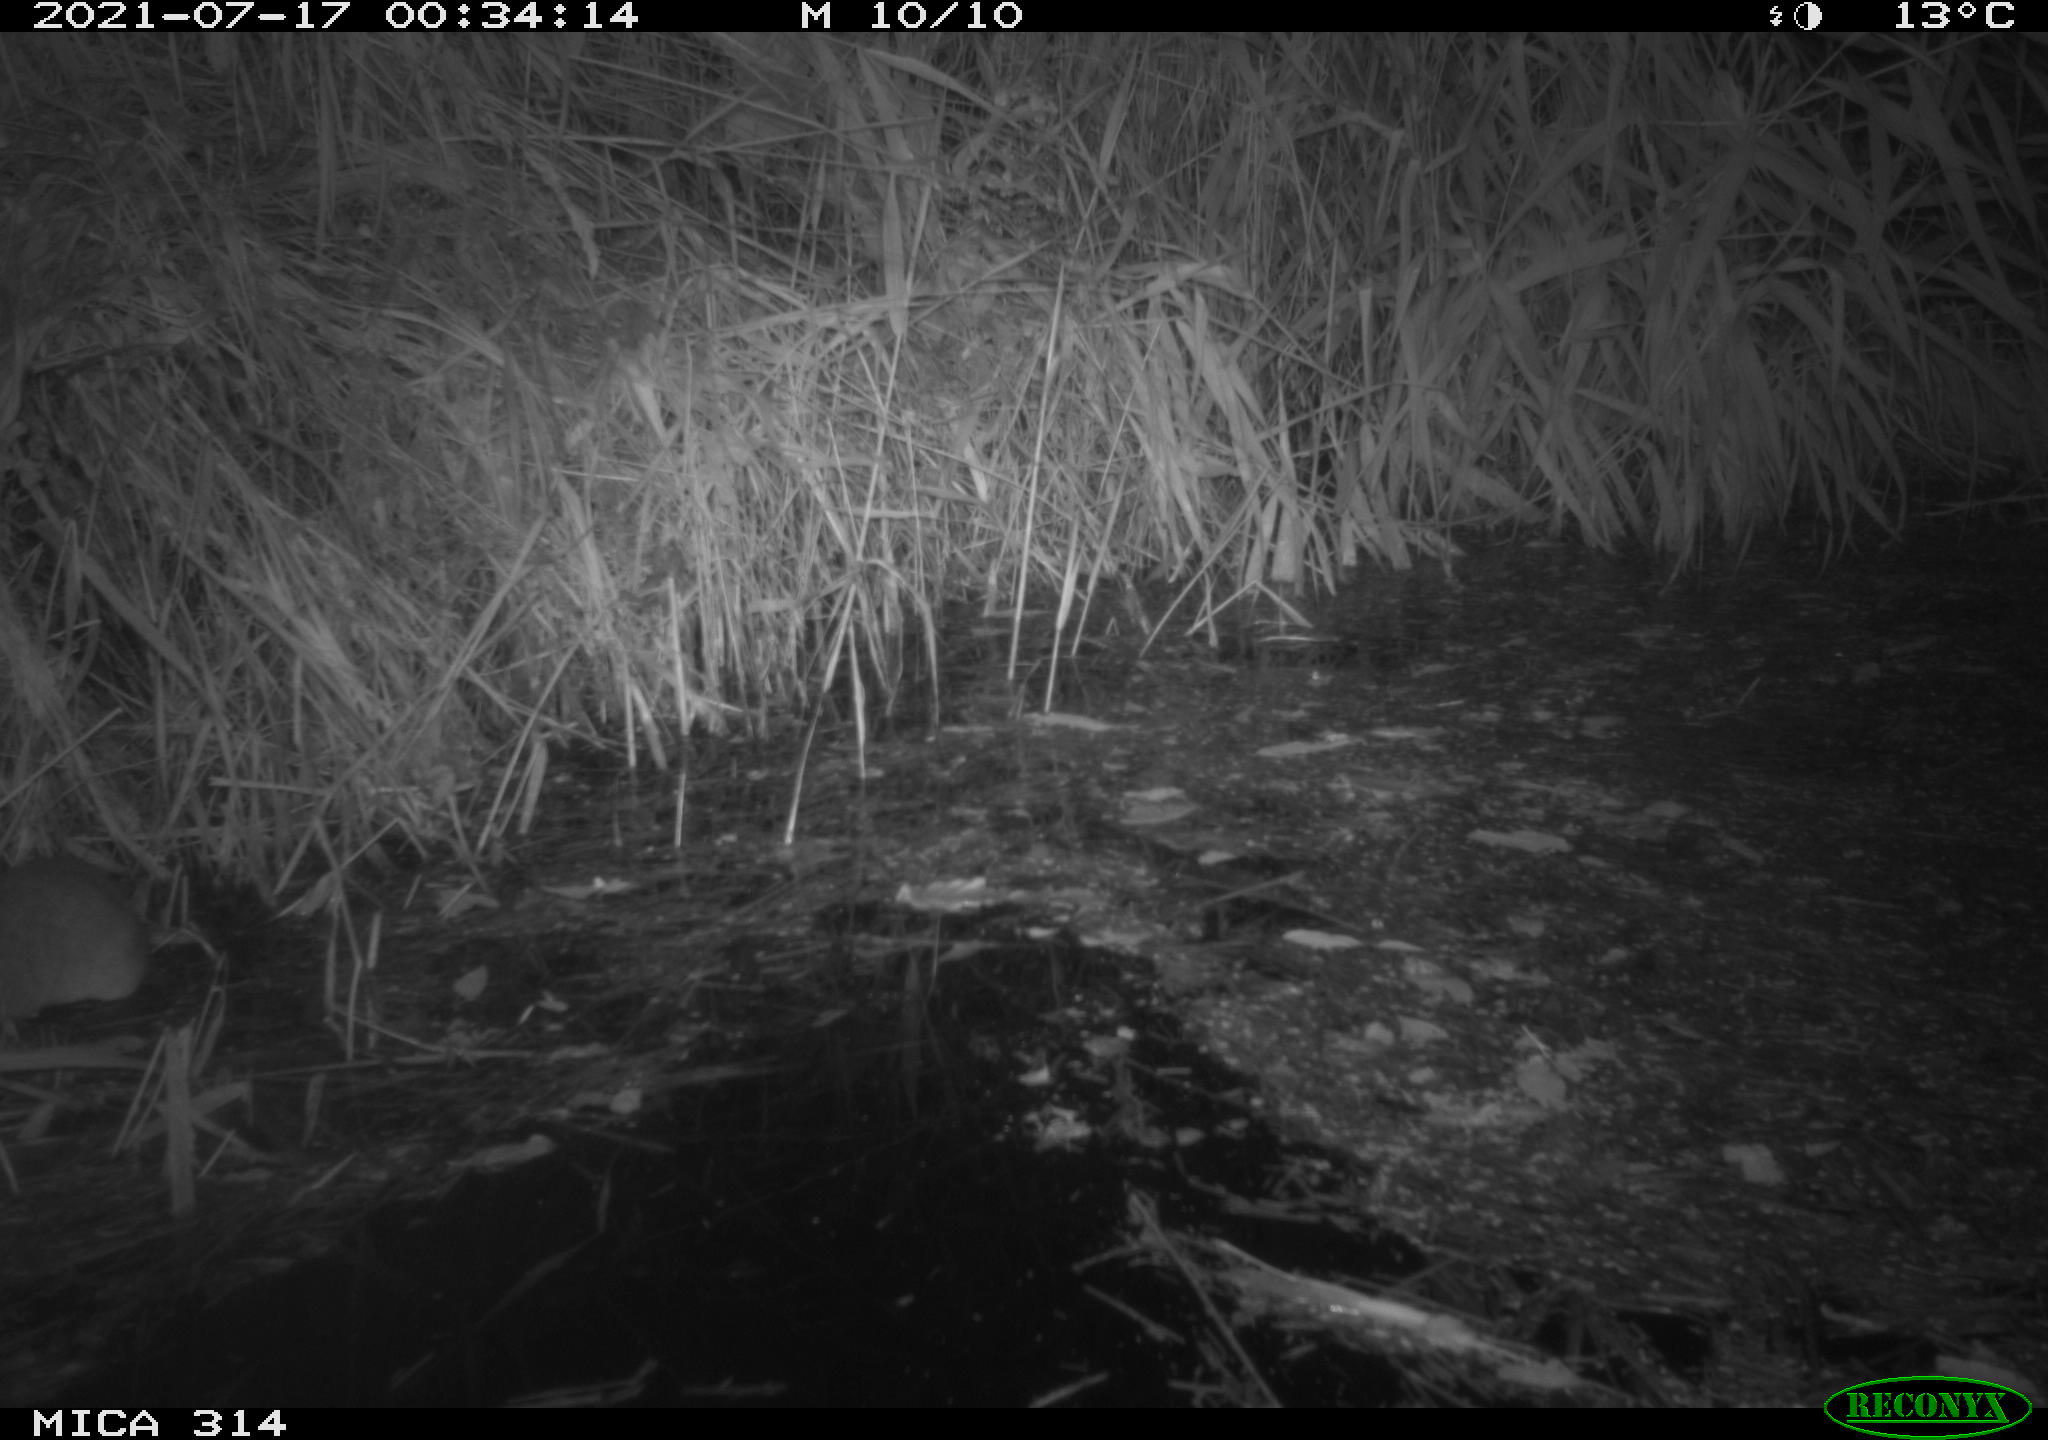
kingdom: Animalia
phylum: Chordata
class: Mammalia
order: Rodentia
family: Muridae
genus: Rattus
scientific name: Rattus norvegicus
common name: Brown rat
